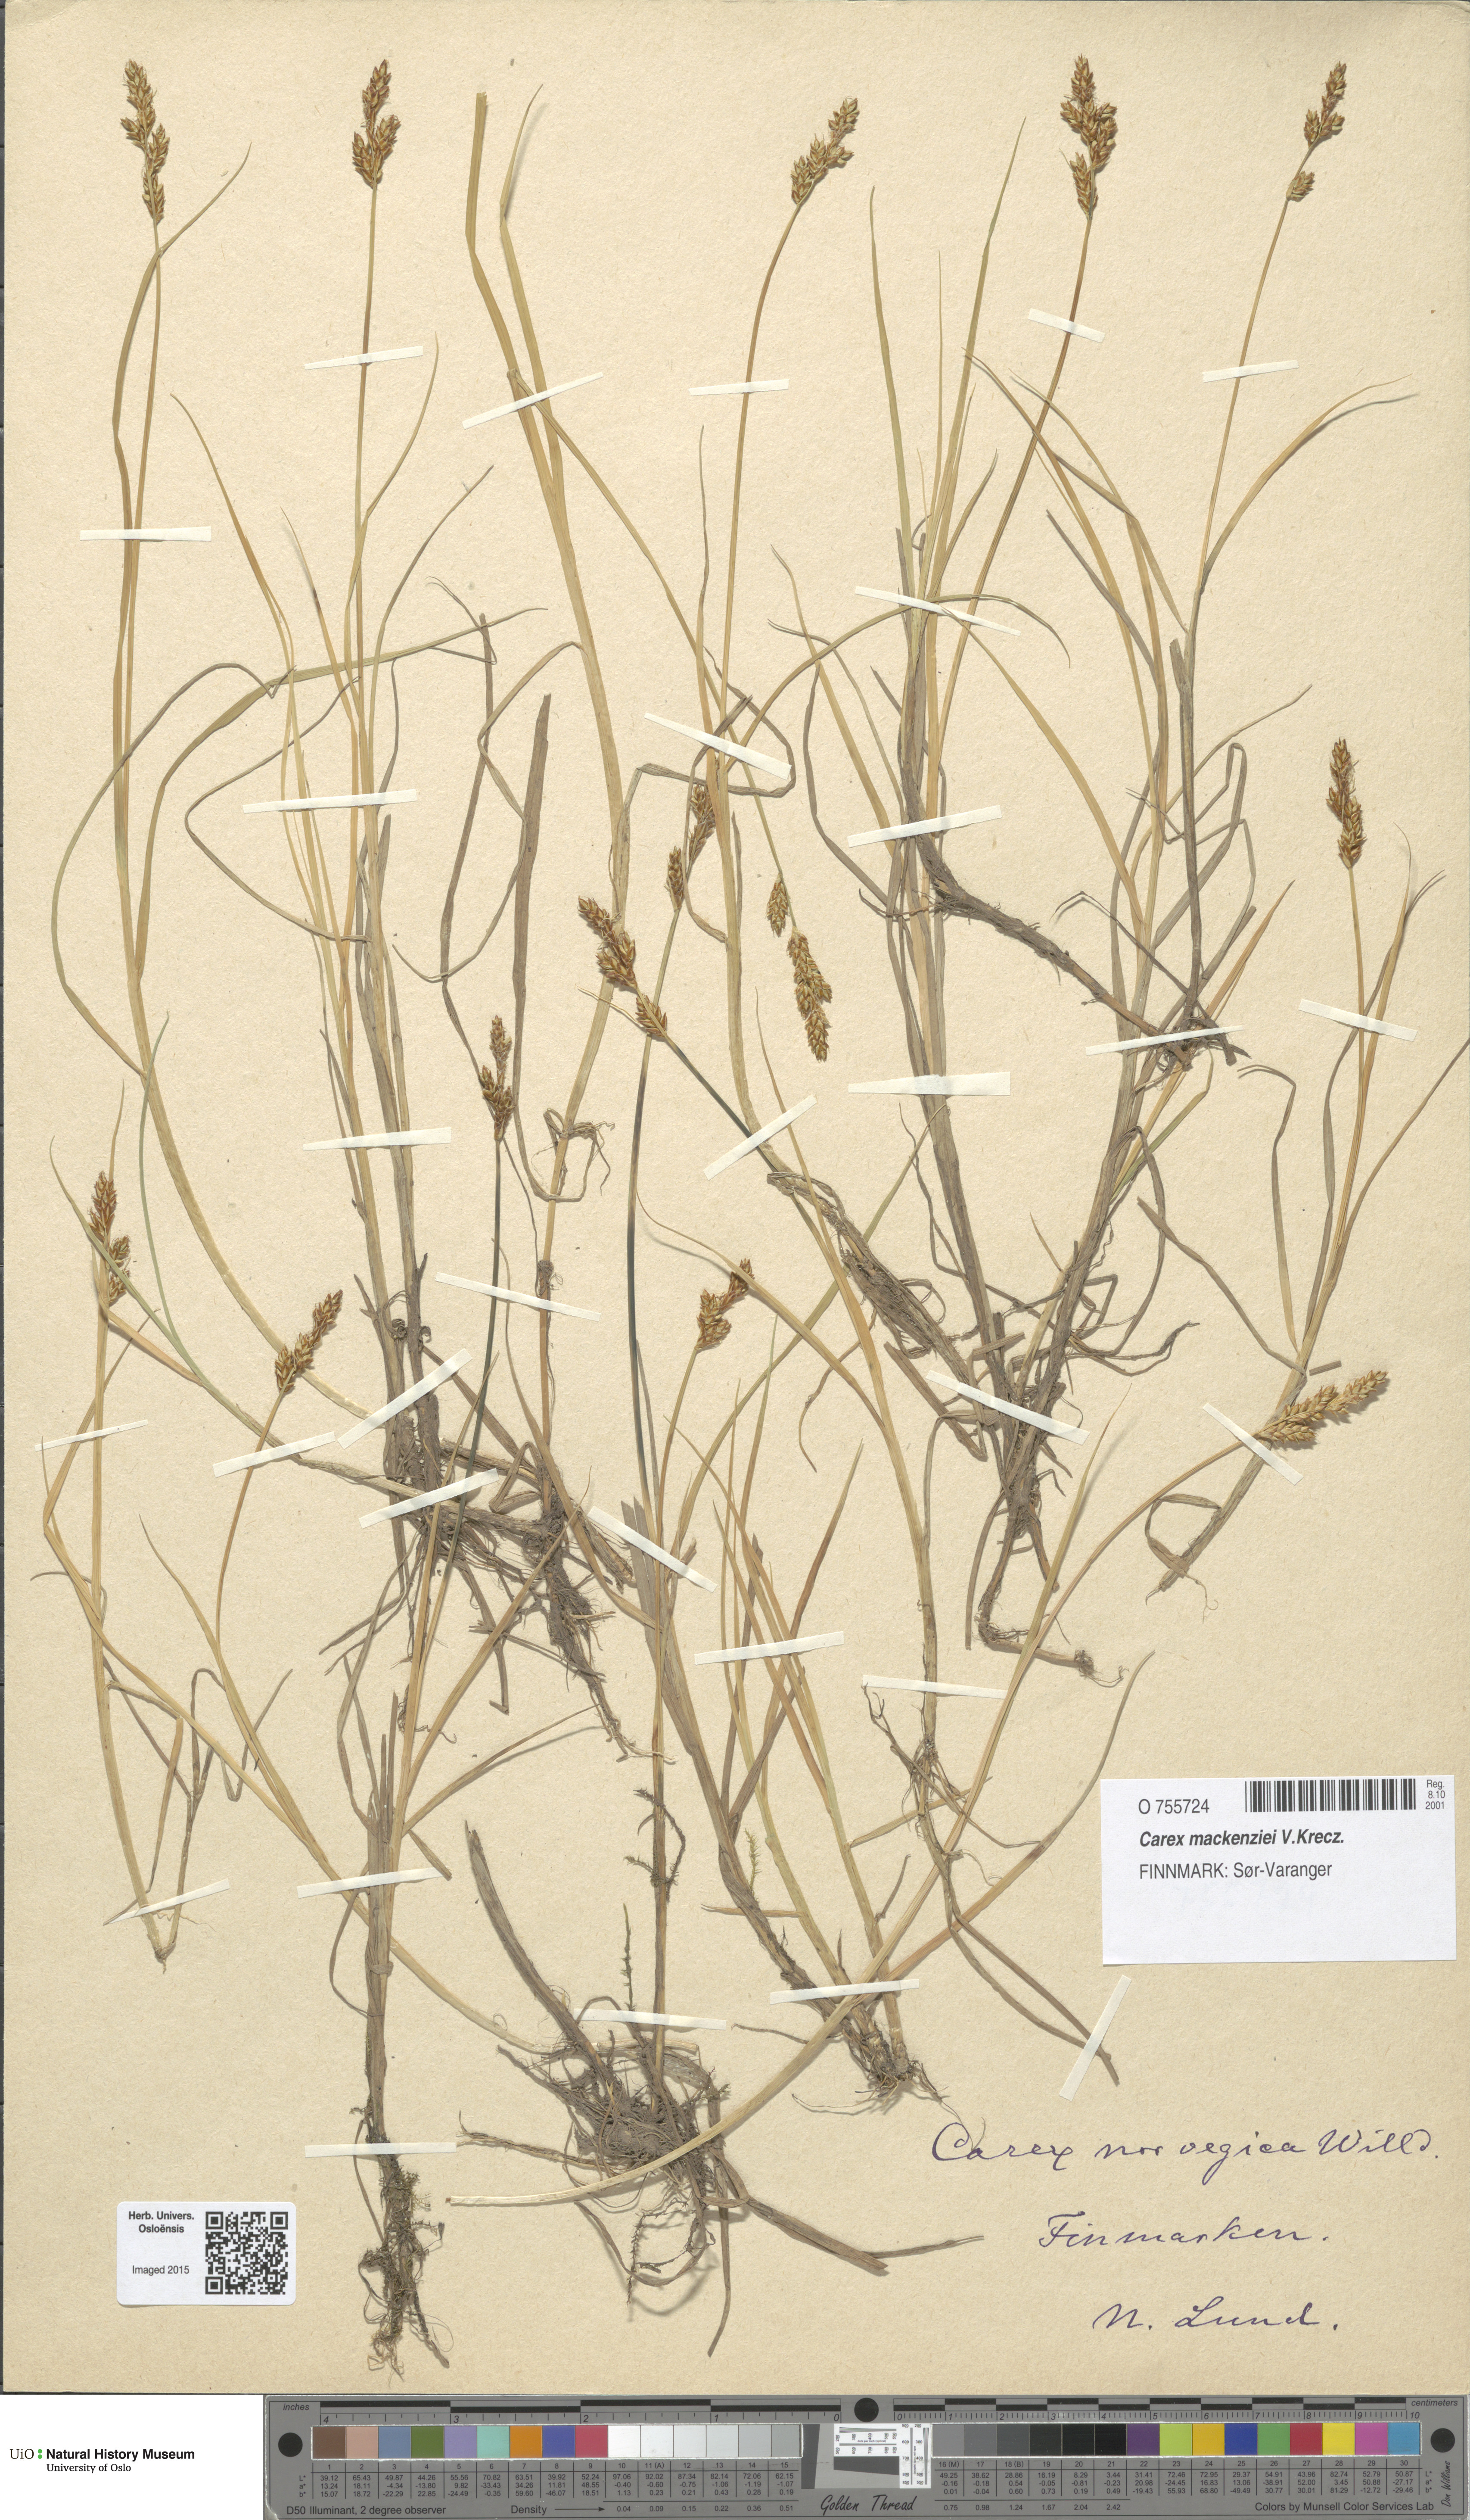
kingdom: Plantae
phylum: Tracheophyta
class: Liliopsida
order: Poales
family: Cyperaceae
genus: Carex
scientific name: Carex mackenziei
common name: Mackenzie's sedge
